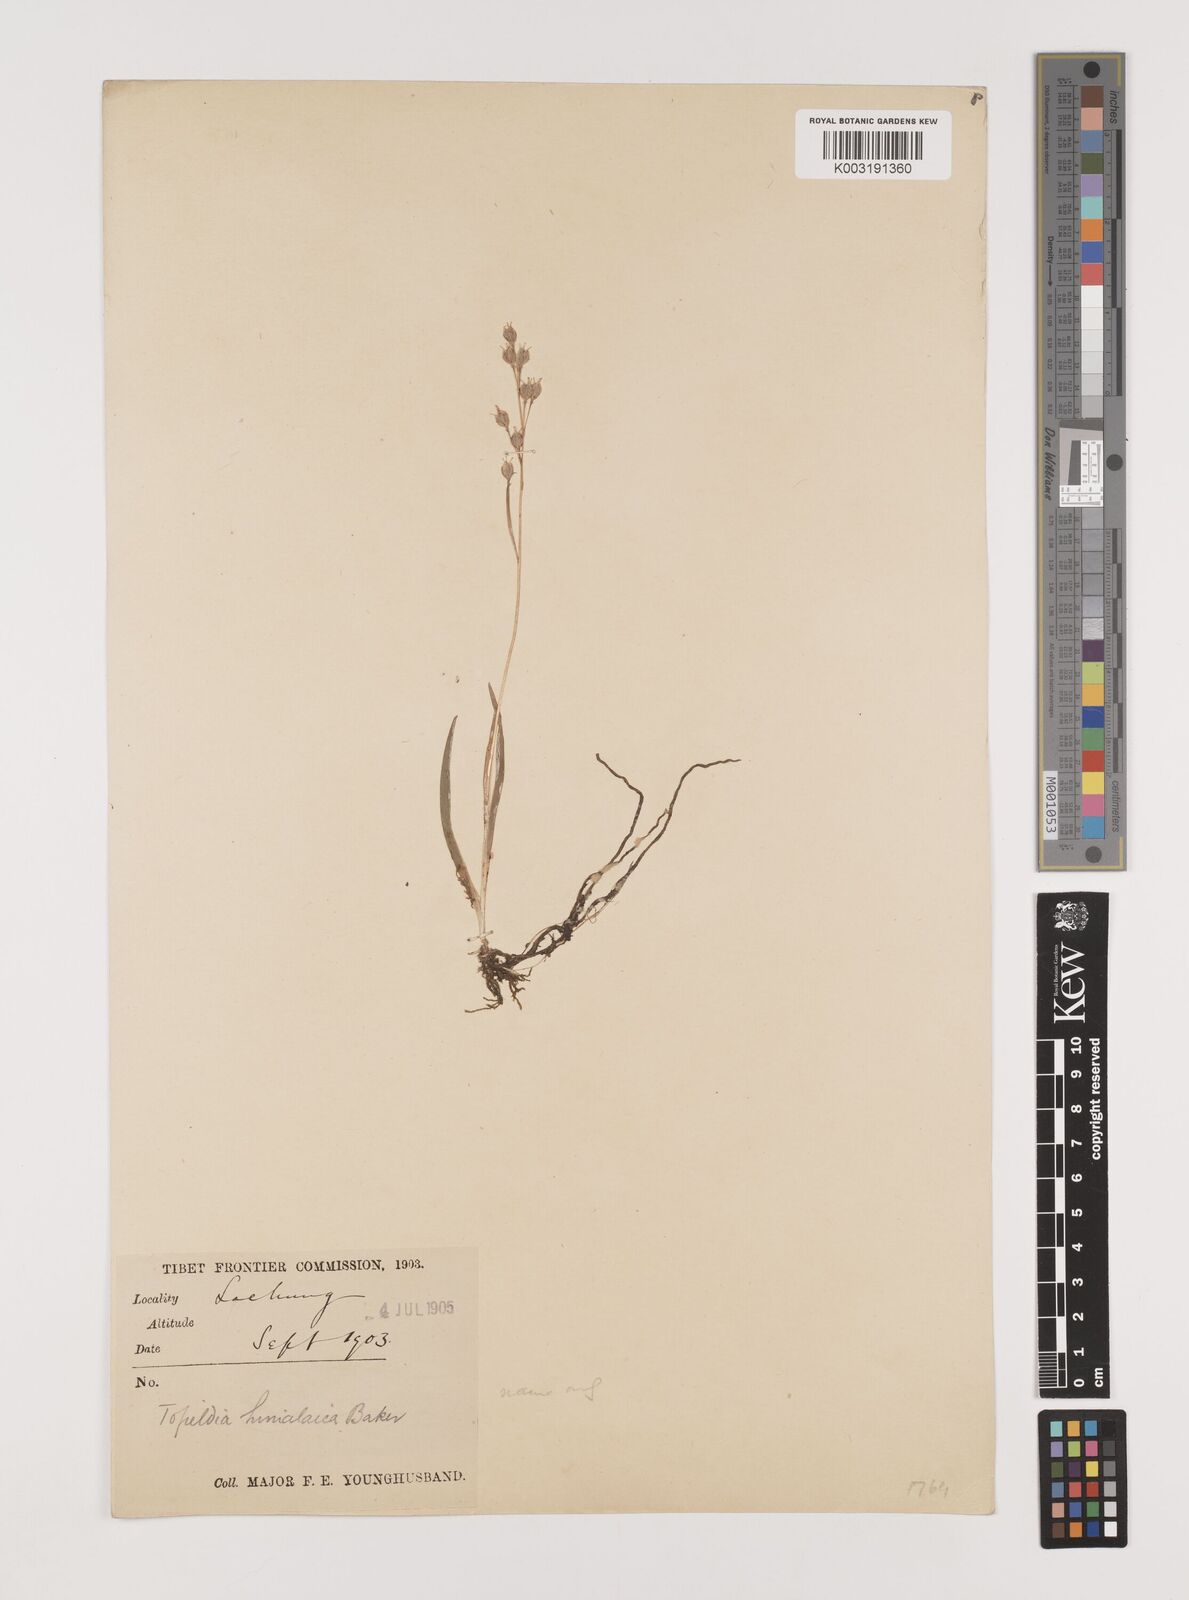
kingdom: Plantae
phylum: Tracheophyta
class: Liliopsida
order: Alismatales
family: Tofieldiaceae
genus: Tofieldia
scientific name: Tofieldia himalaica
